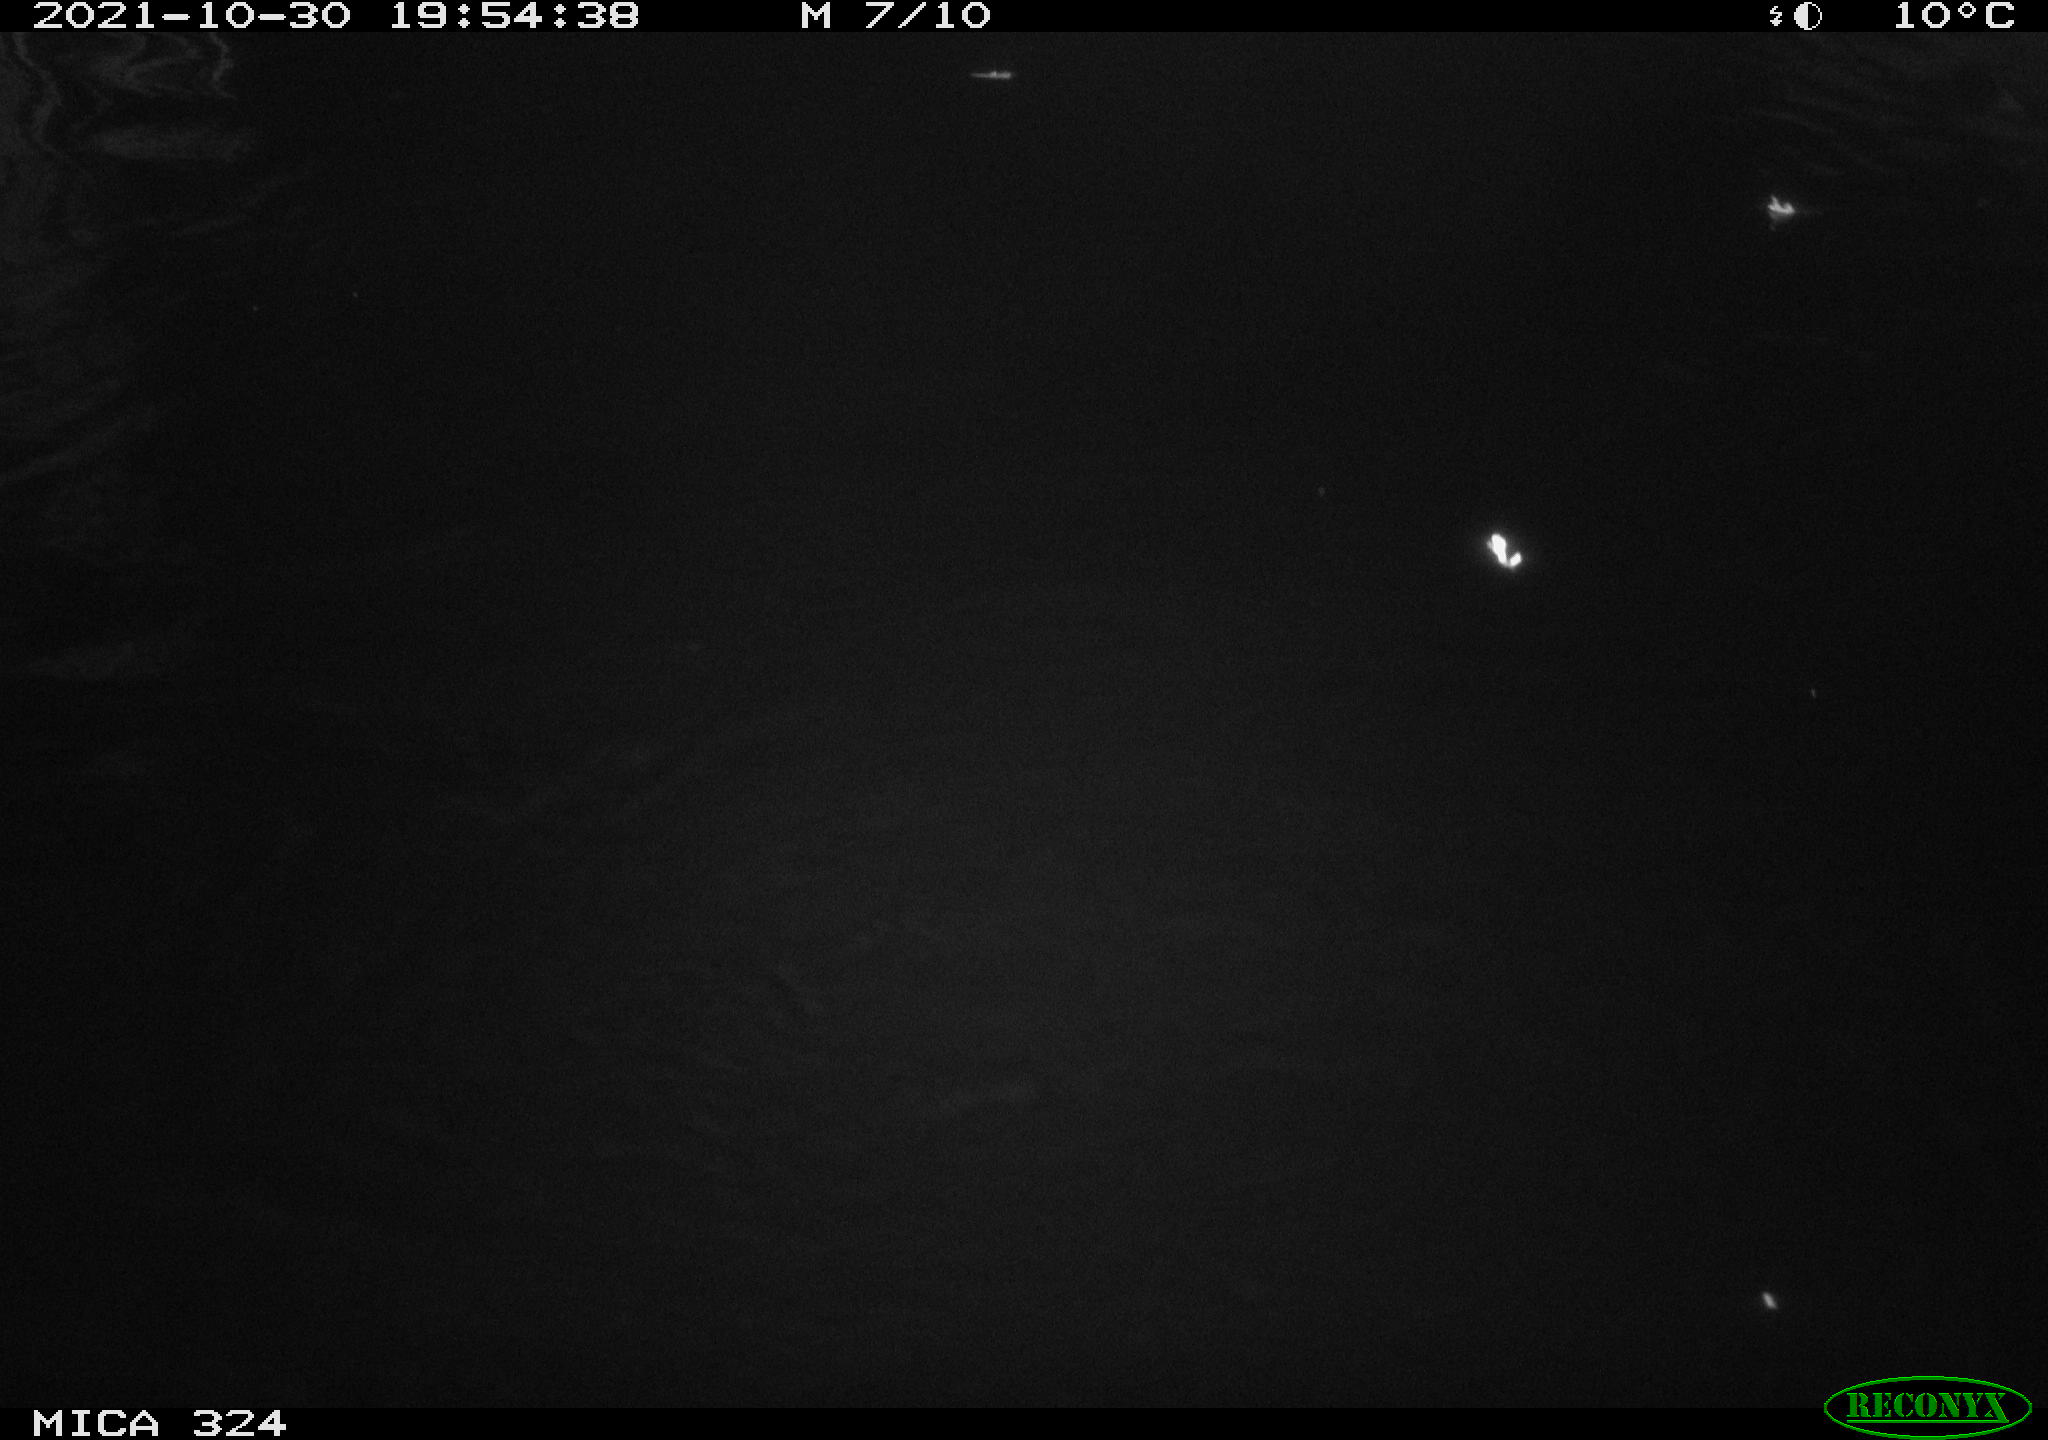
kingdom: Animalia
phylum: Chordata
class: Mammalia
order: Rodentia
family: Cricetidae
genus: Ondatra
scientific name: Ondatra zibethicus
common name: Muskrat
